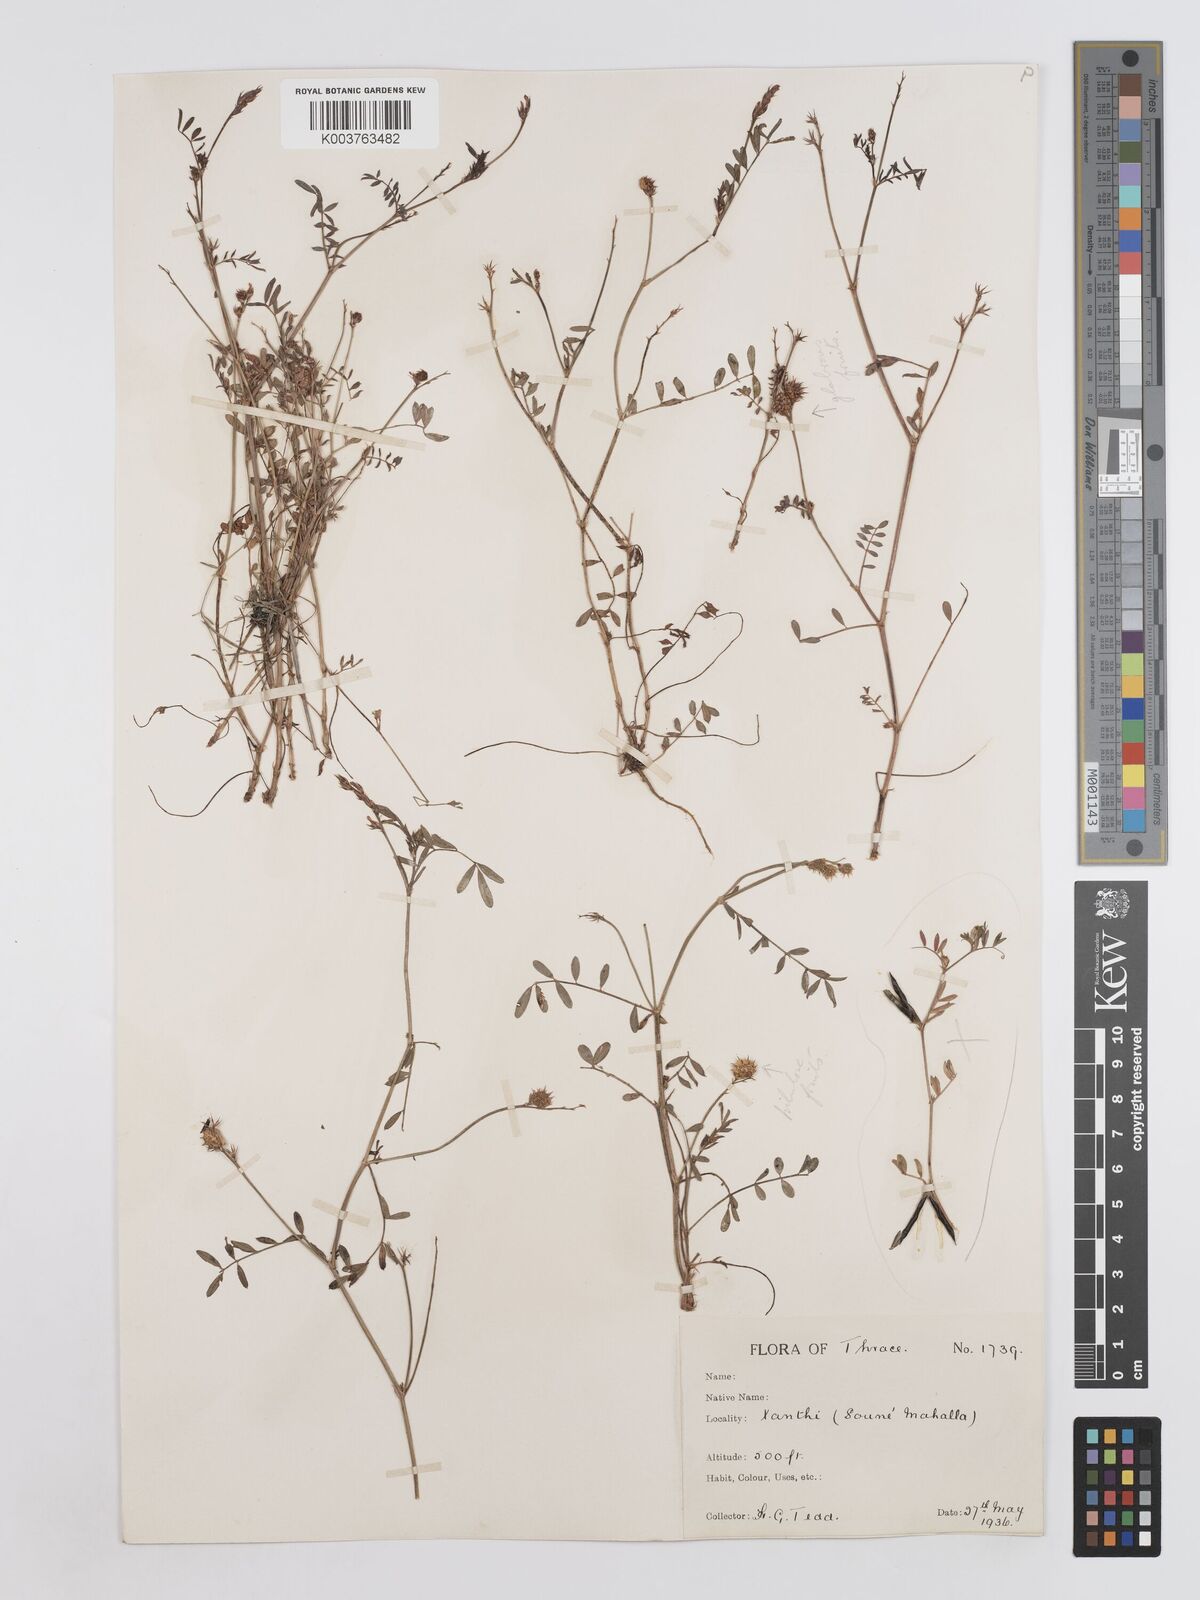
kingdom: Plantae
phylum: Tracheophyta
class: Magnoliopsida
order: Fabales
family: Fabaceae
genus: Onobrychis
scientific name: Onobrychis caput-galli
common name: Cockscomb sainfoin
